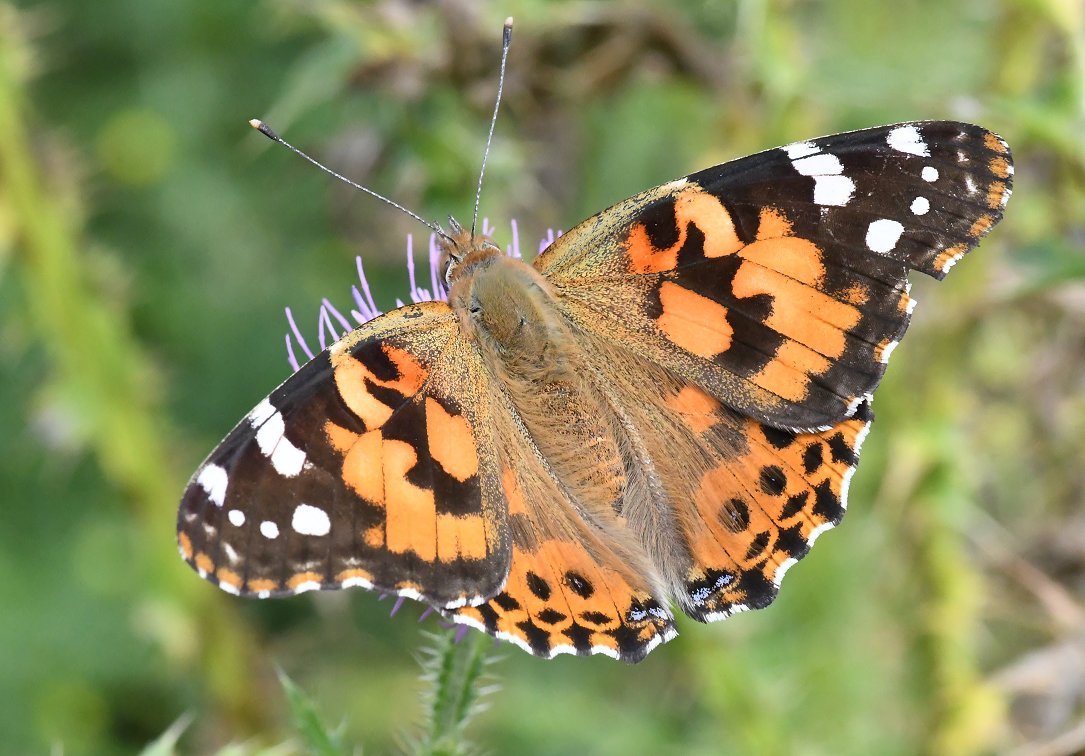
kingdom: Animalia
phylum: Arthropoda
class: Insecta
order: Lepidoptera
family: Nymphalidae
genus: Vanessa
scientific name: Vanessa cardui
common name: Painted Lady
